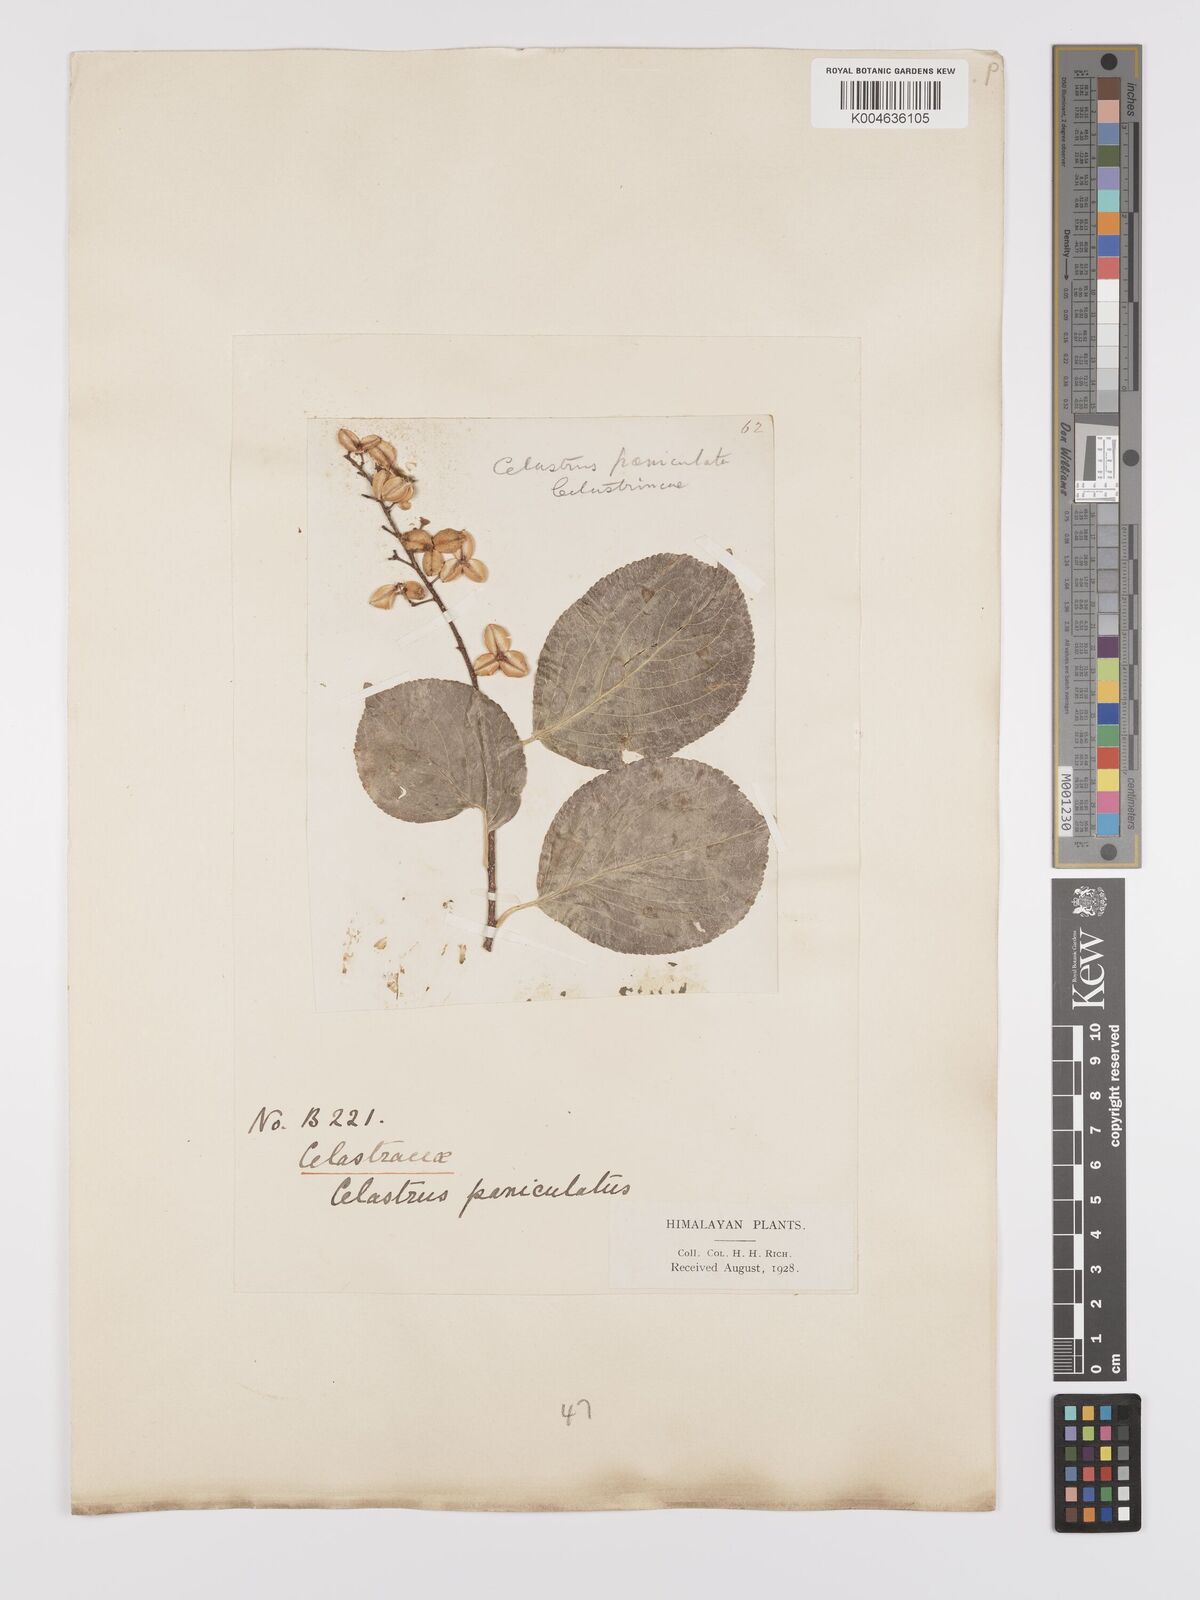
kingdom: Plantae
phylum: Tracheophyta
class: Magnoliopsida
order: Celastrales
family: Celastraceae
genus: Celastrus
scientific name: Celastrus paniculatus
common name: Oriental bittersweet; staff vine
